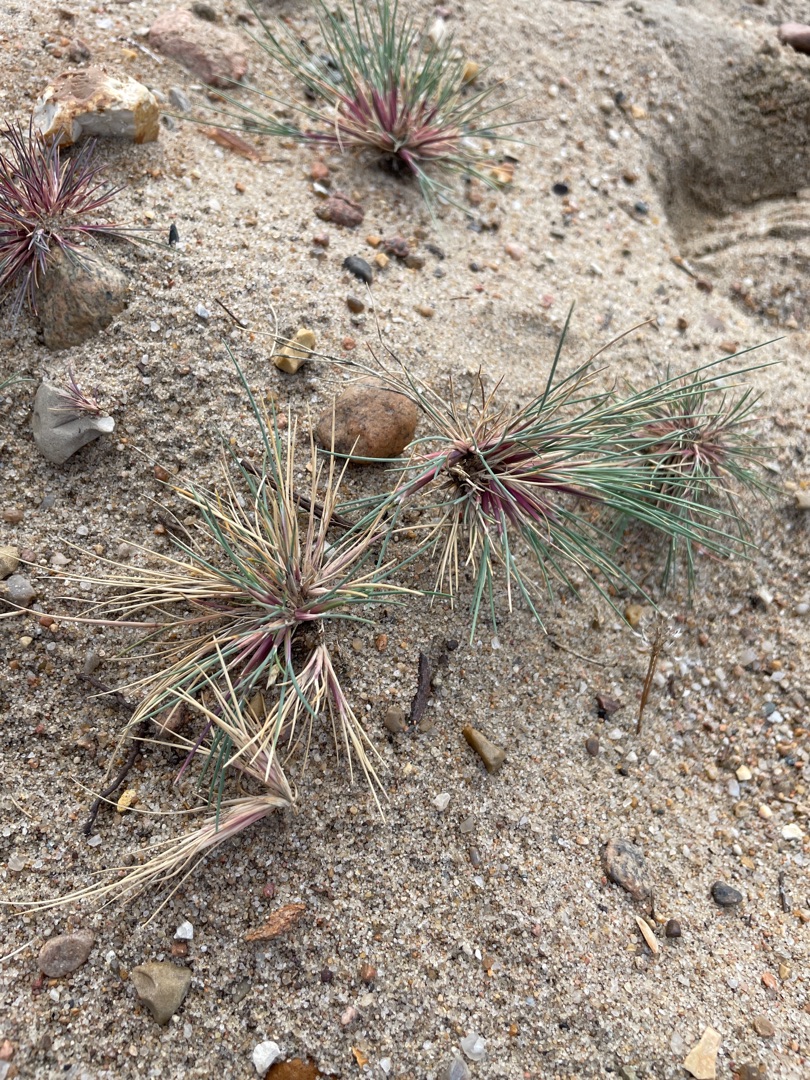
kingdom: Plantae
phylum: Tracheophyta
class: Liliopsida
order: Poales
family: Poaceae
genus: Corynephorus
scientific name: Corynephorus canescens
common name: Sandskæg
